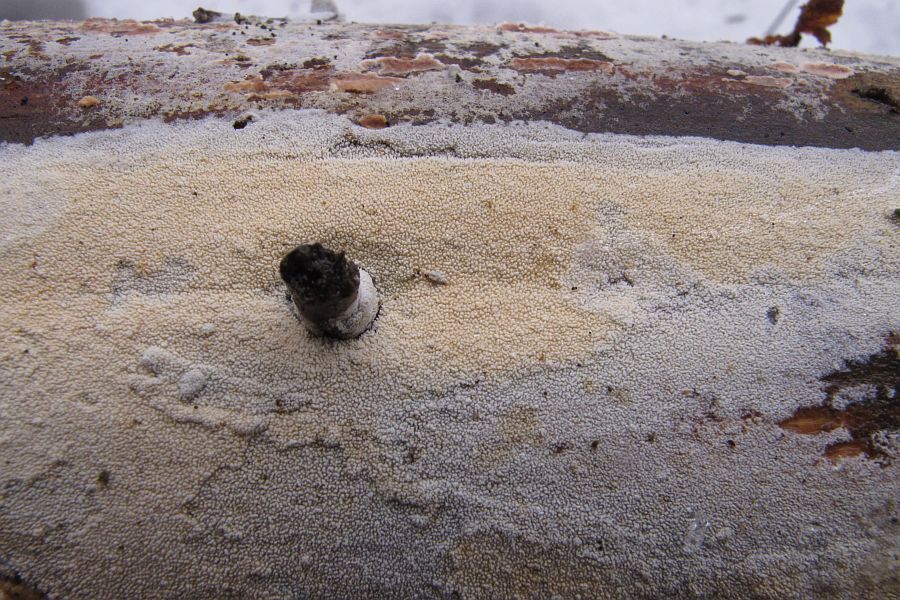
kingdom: Fungi
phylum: Basidiomycota
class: Agaricomycetes
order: Hymenochaetales
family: Rickenellaceae
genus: Resinicium
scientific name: Resinicium bicolor
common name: almindelig vokstand
